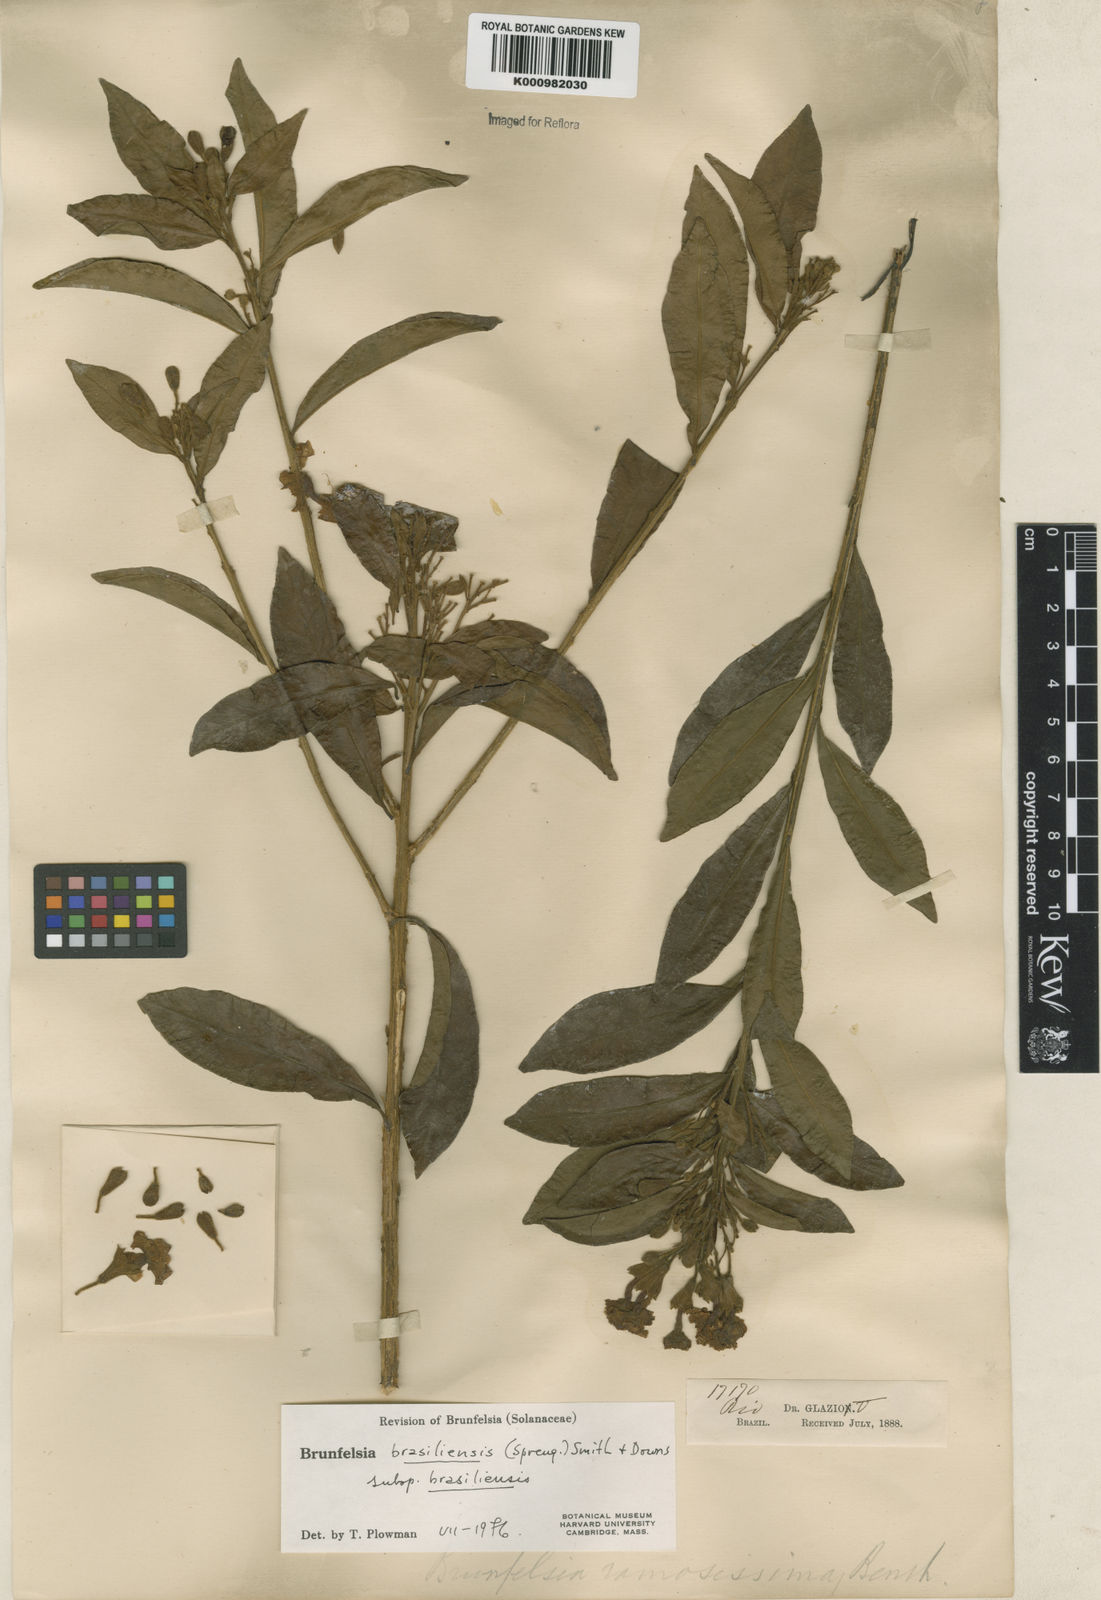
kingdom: Plantae
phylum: Tracheophyta
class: Magnoliopsida
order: Solanales
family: Solanaceae
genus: Brunfelsia
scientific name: Brunfelsia brasiliensis
